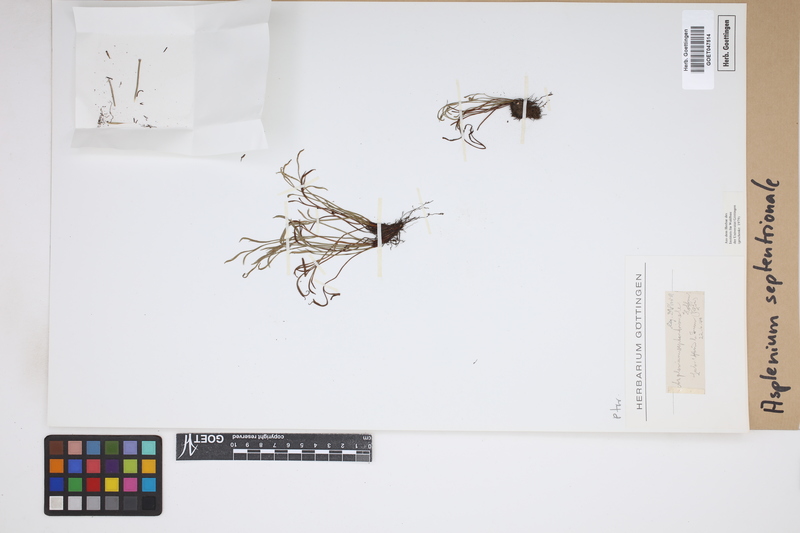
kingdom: Plantae
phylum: Tracheophyta
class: Polypodiopsida
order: Polypodiales
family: Aspleniaceae
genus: Asplenium
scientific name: Asplenium septentrionale
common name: Forked spleenwort
